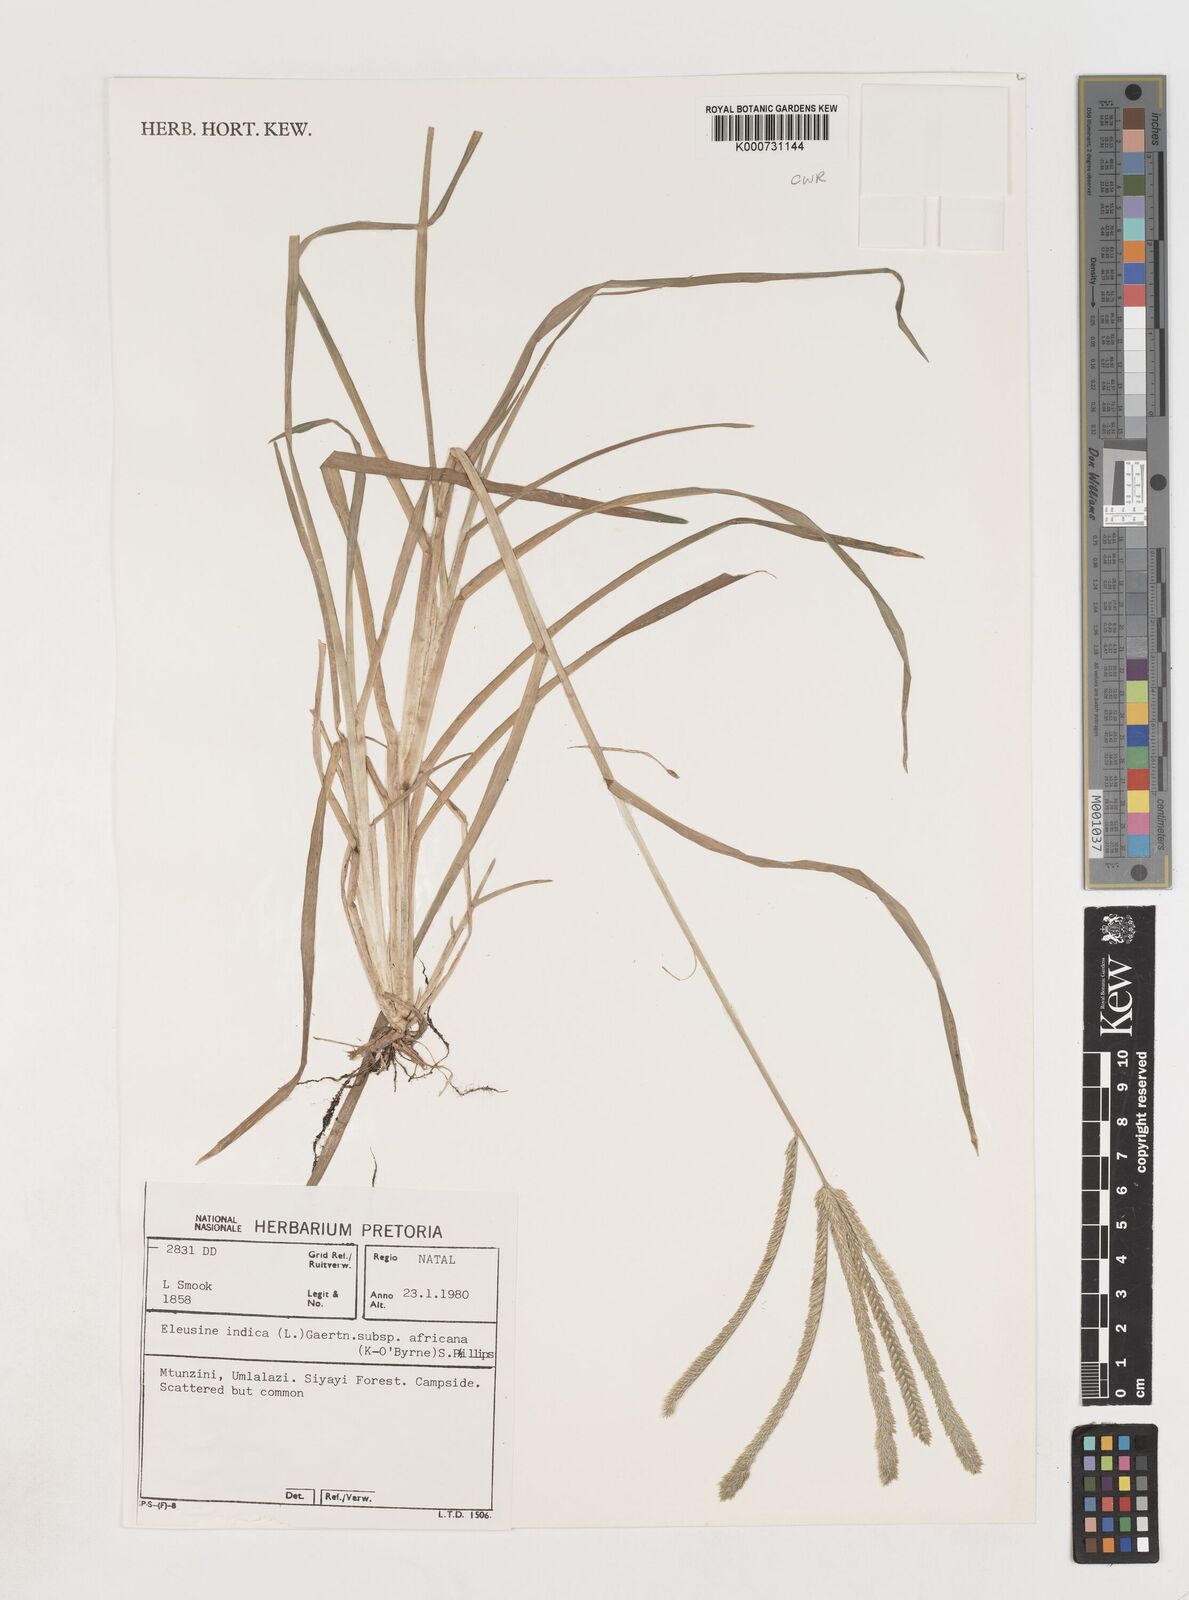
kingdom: Plantae
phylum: Tracheophyta
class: Liliopsida
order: Poales
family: Poaceae
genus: Eleusine
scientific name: Eleusine africana
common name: Wild african finger millet
